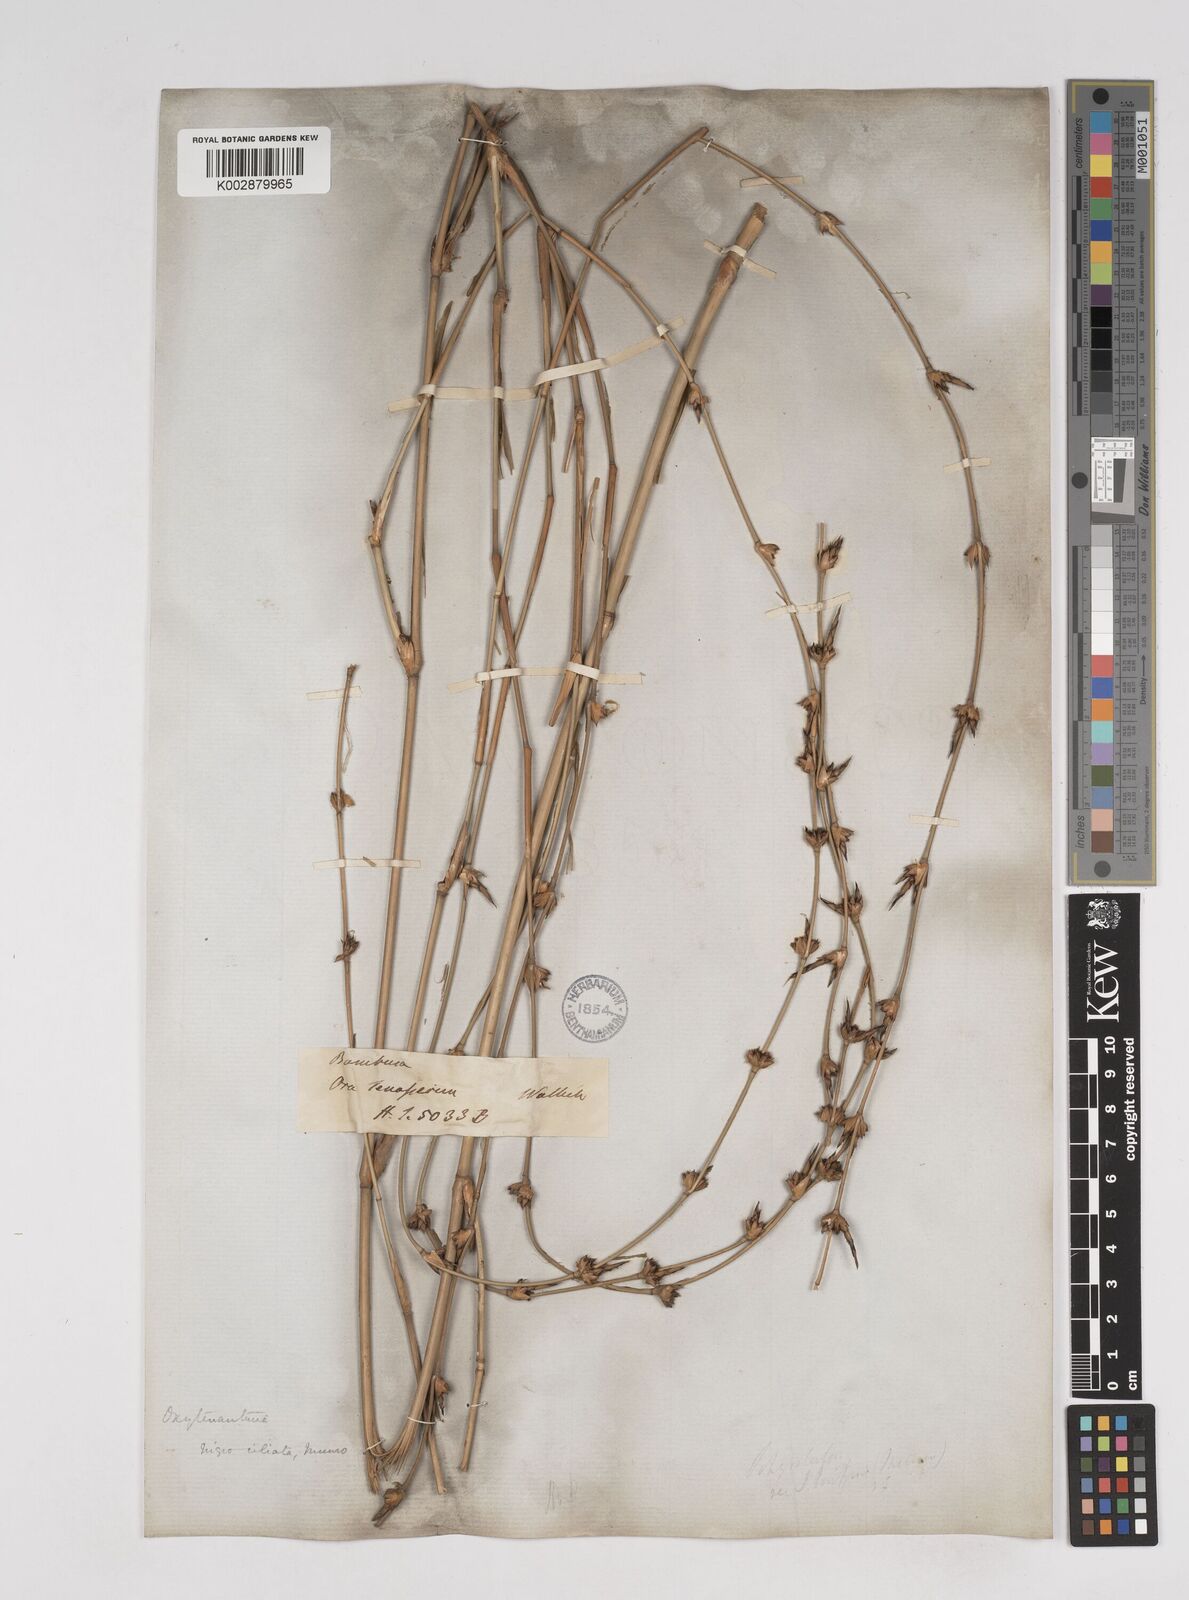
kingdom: Plantae
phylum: Tracheophyta
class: Liliopsida
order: Poales
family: Poaceae
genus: Gigantochloa
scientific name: Gigantochloa nigrociliata
